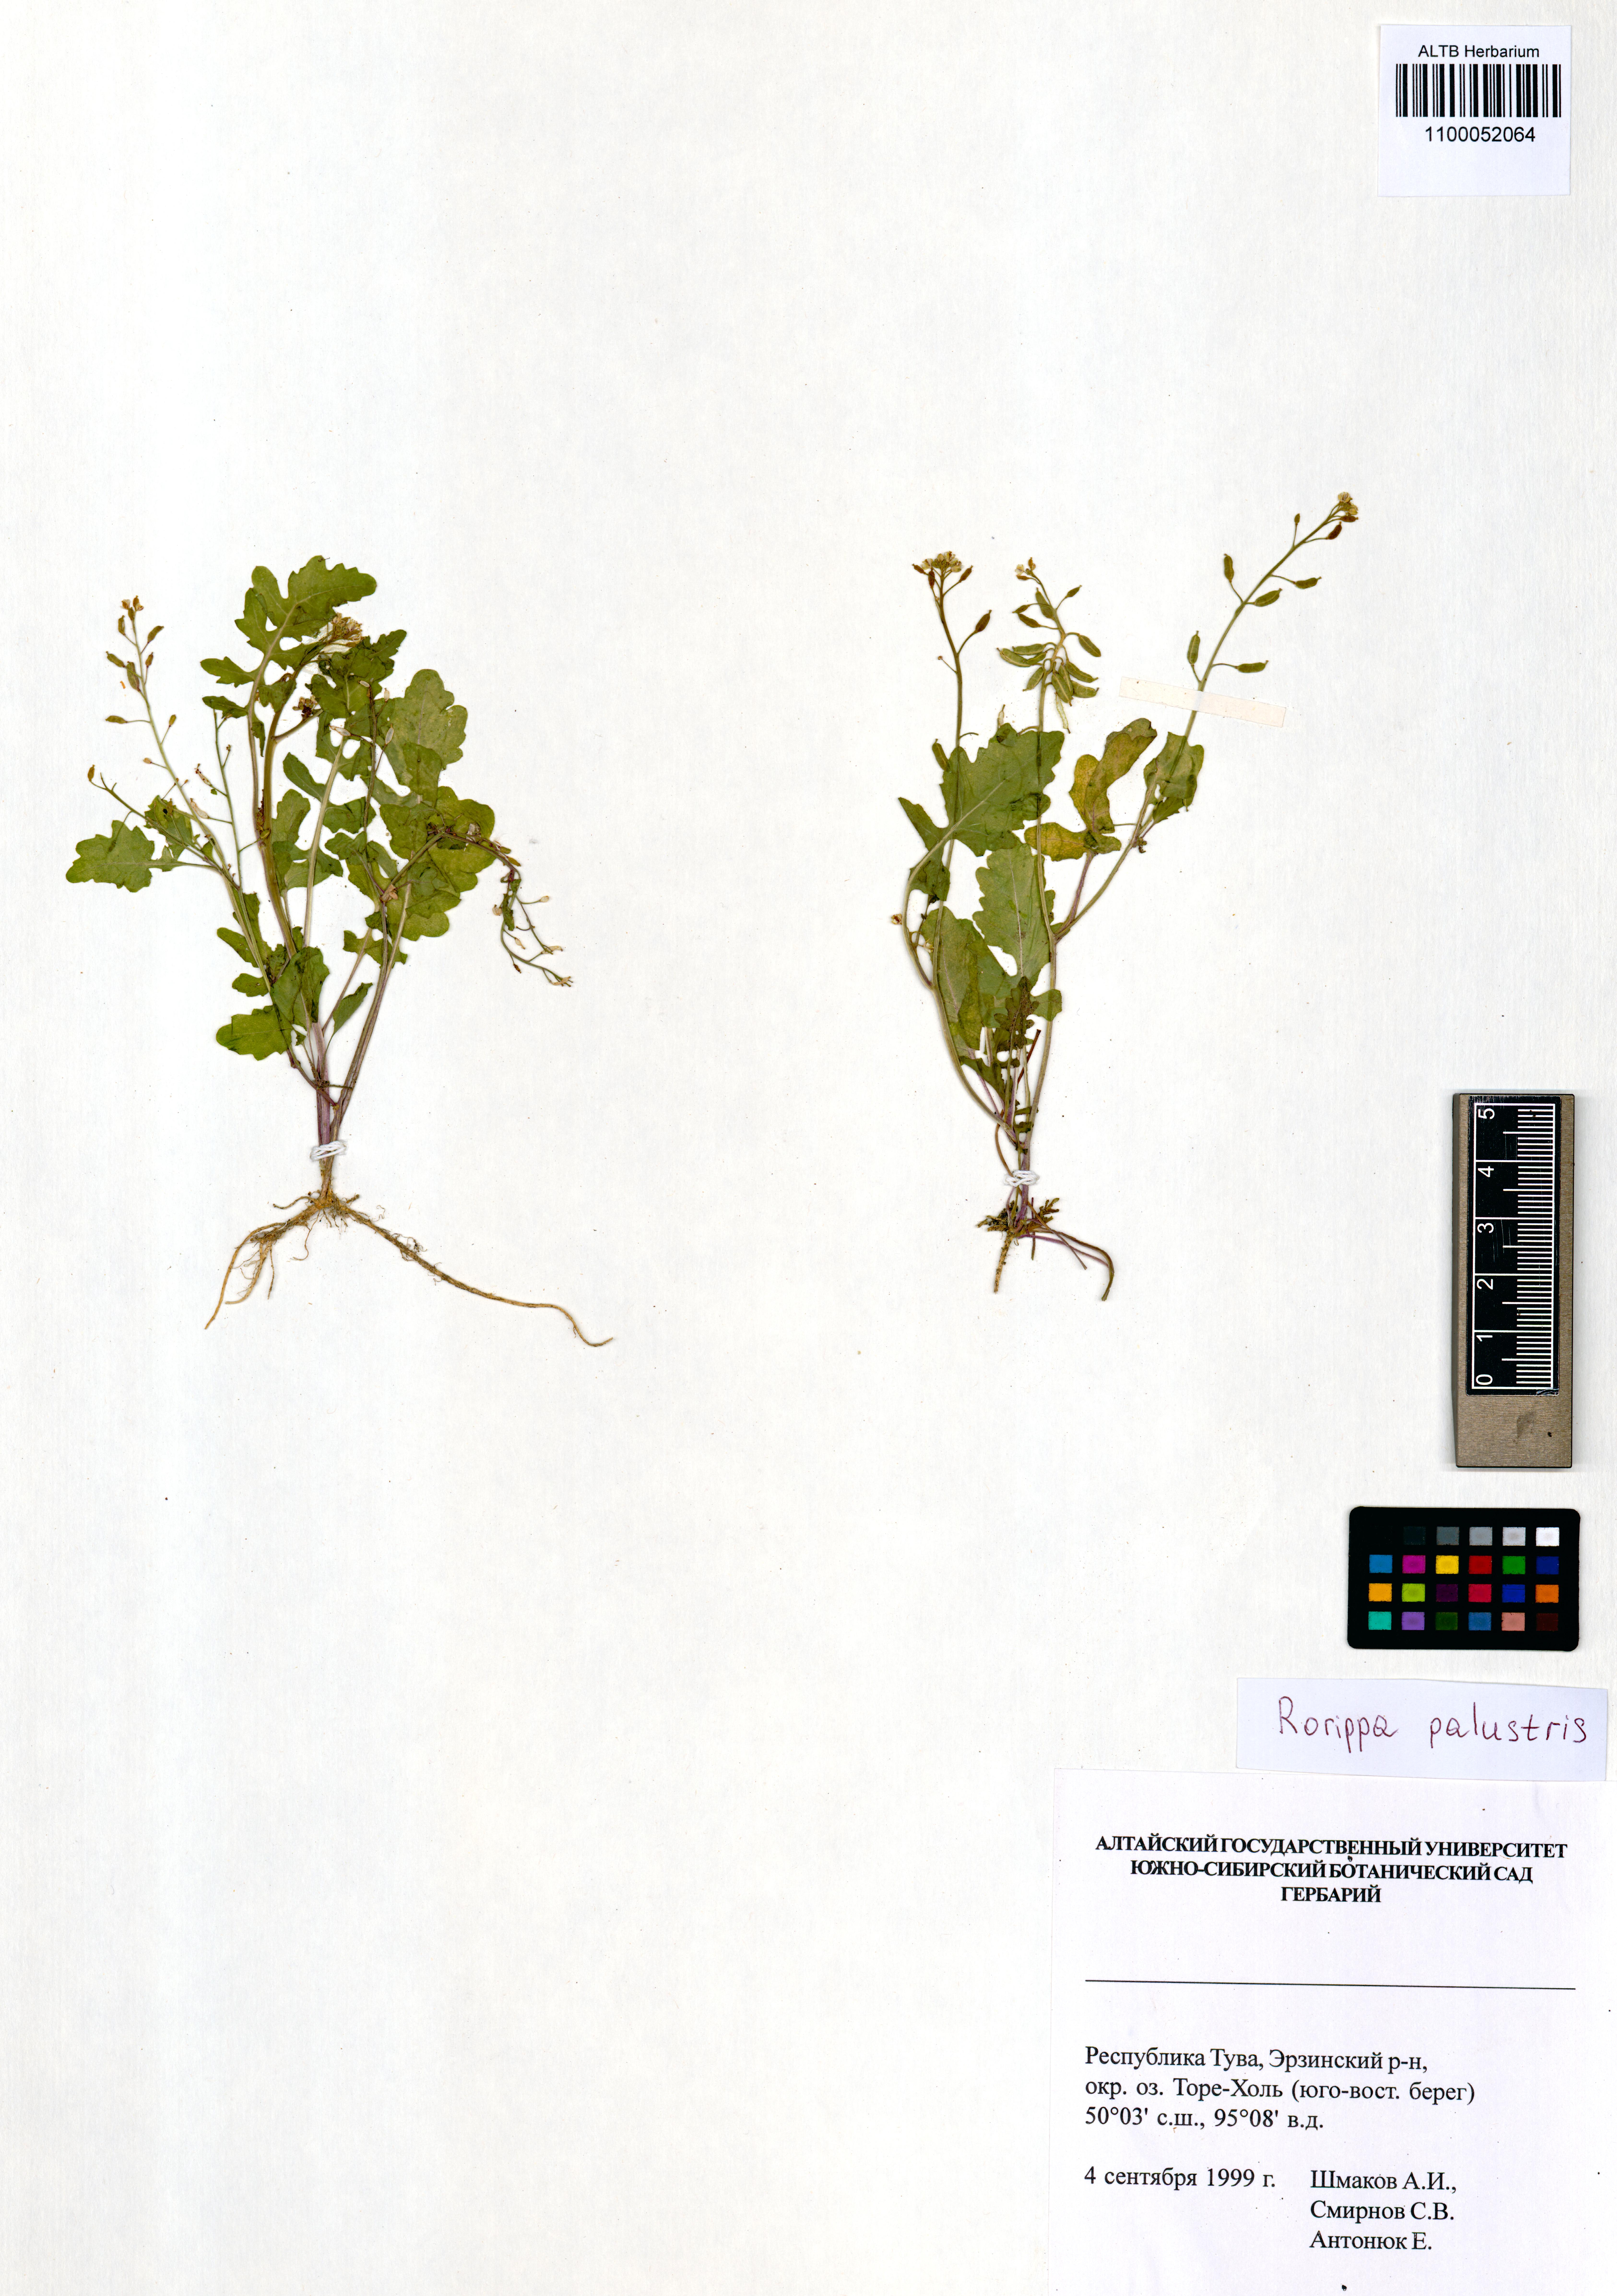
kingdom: Plantae
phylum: Tracheophyta
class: Magnoliopsida
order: Brassicales
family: Brassicaceae
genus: Rorippa
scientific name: Rorippa palustris
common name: Marsh yellow-cress
